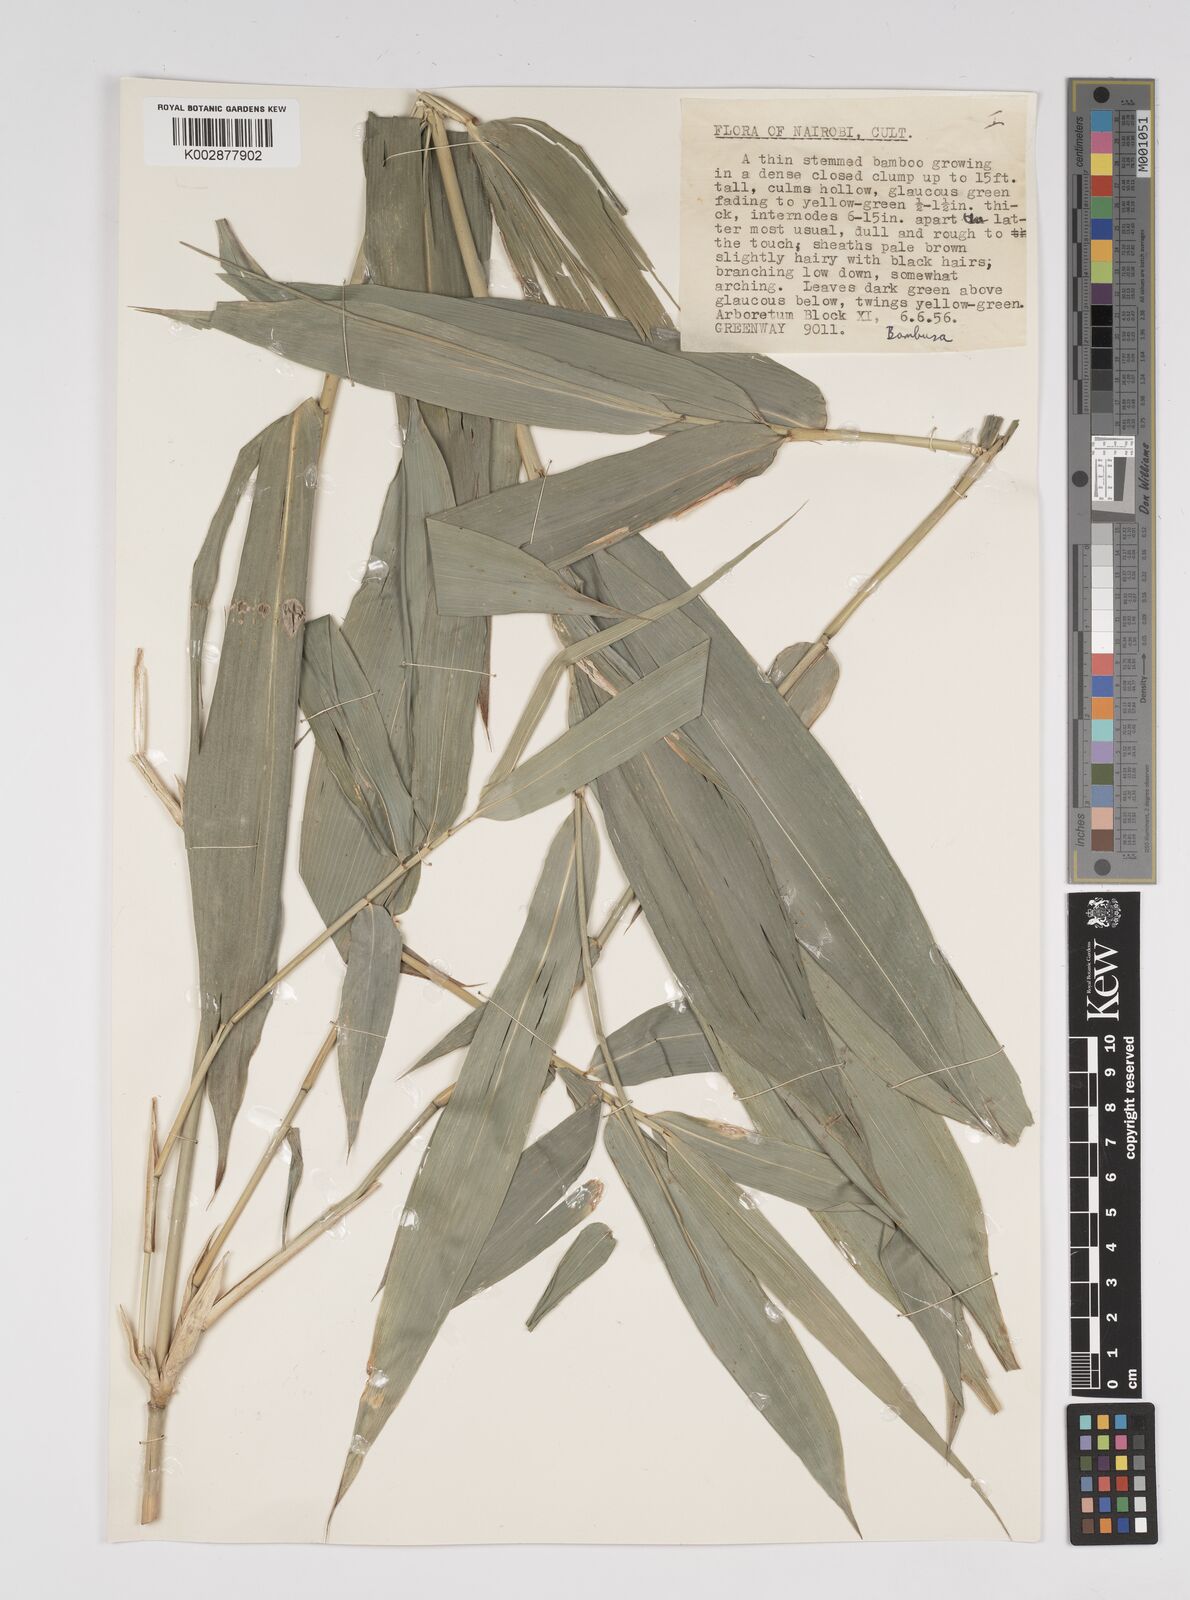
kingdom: Plantae
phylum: Tracheophyta
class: Liliopsida
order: Poales
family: Poaceae
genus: Bambusa
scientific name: Bambusa
